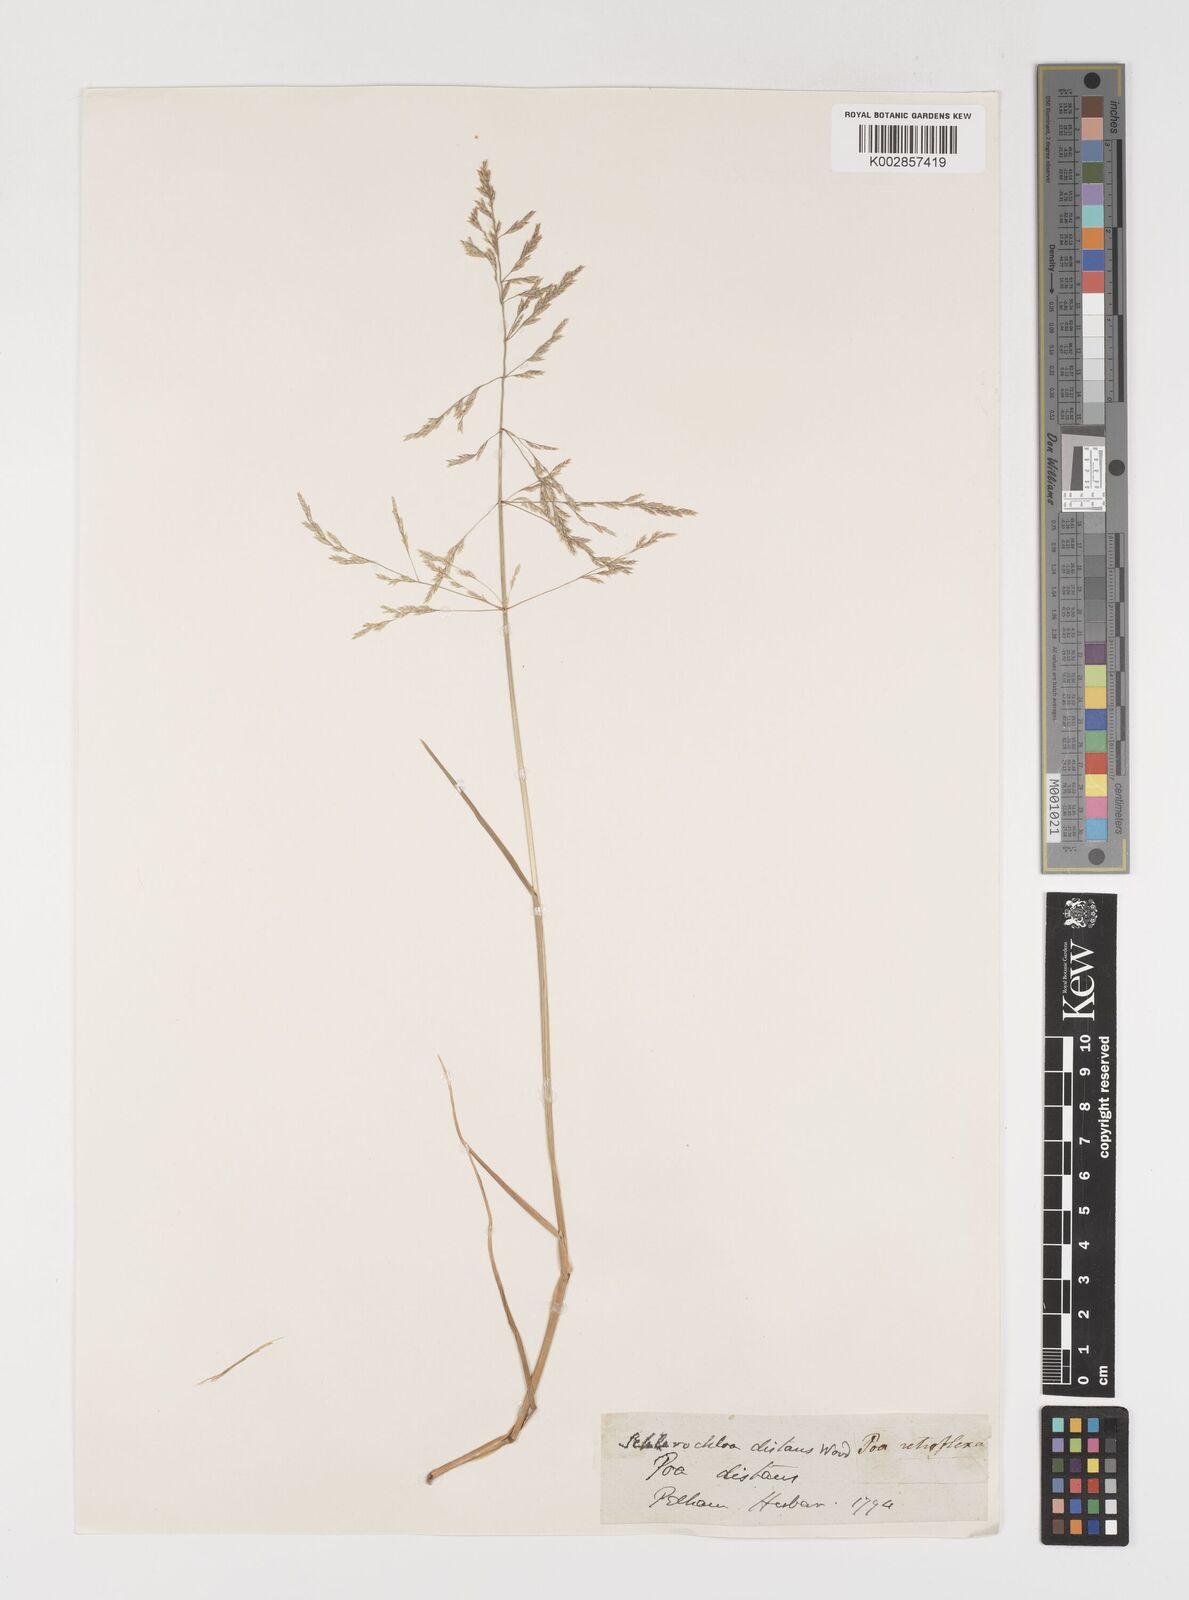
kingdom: Plantae
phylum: Tracheophyta
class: Liliopsida
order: Poales
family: Poaceae
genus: Puccinellia
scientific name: Puccinellia distans
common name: Weeping alkaligrass
